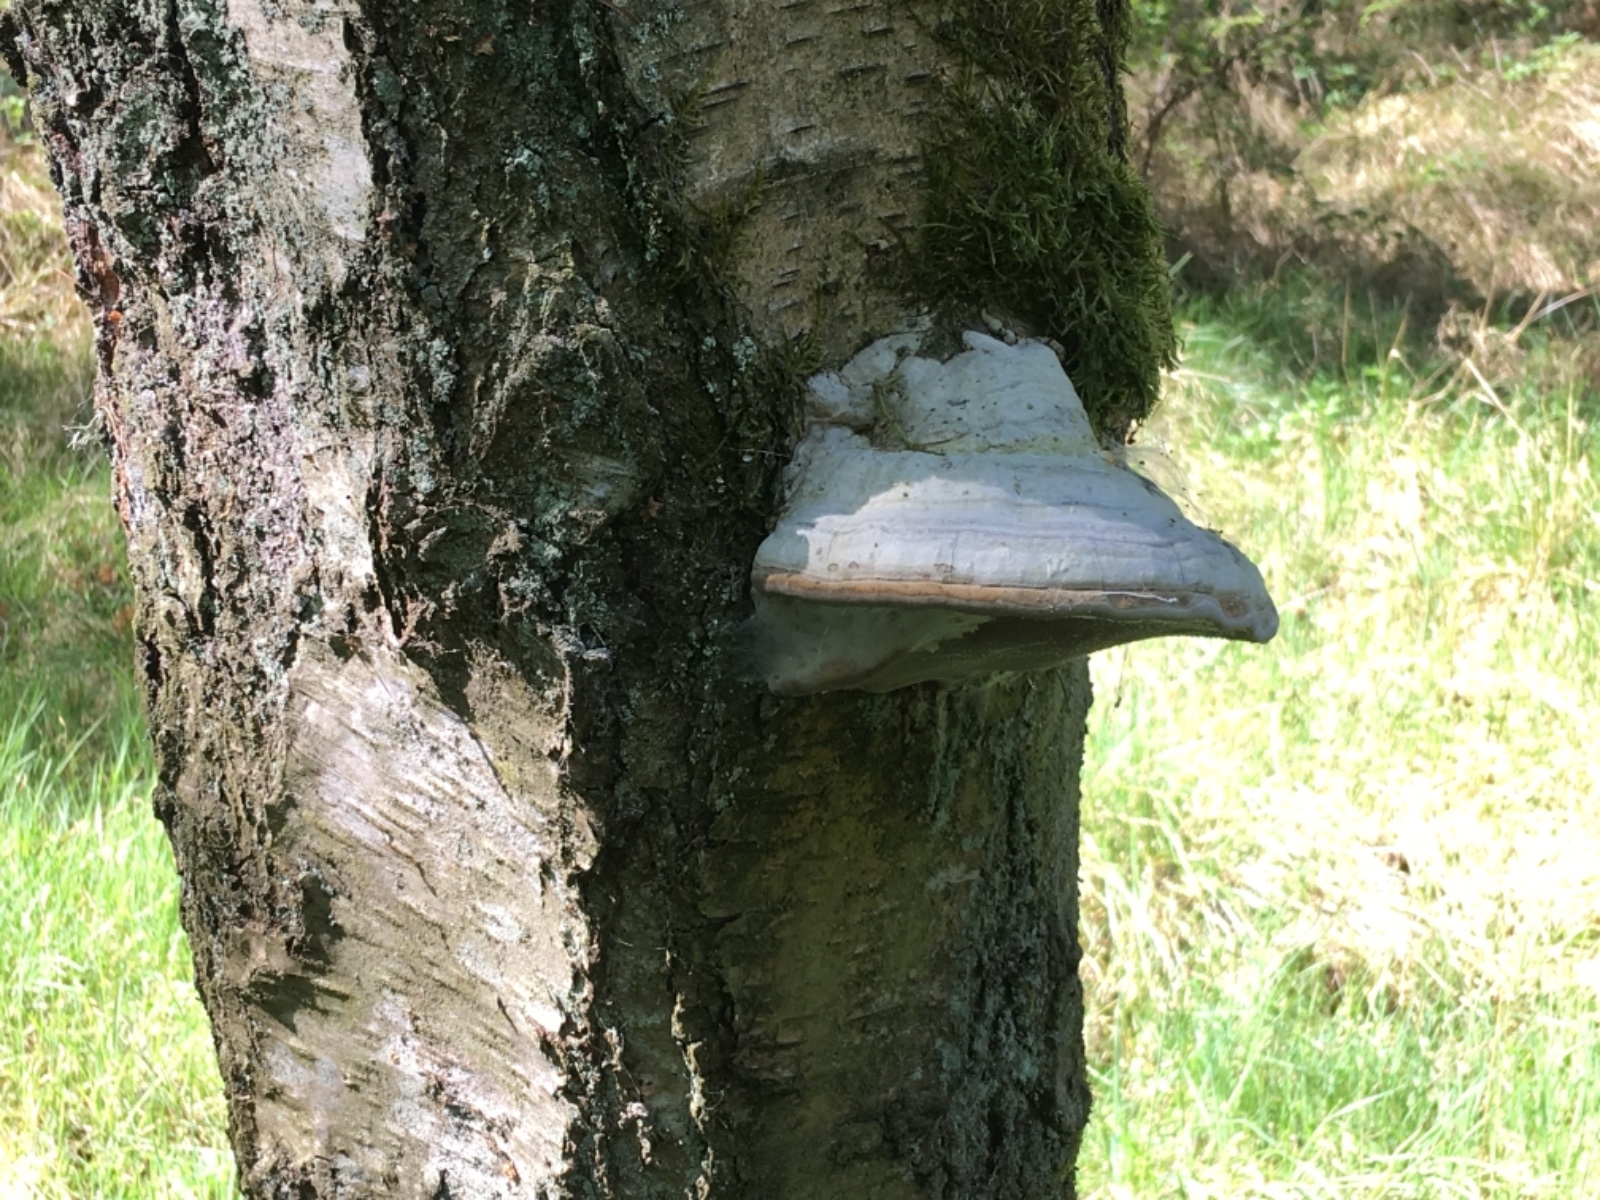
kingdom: Fungi
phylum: Basidiomycota
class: Agaricomycetes
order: Polyporales
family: Polyporaceae
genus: Fomes
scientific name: Fomes fomentarius
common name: tøndersvamp
